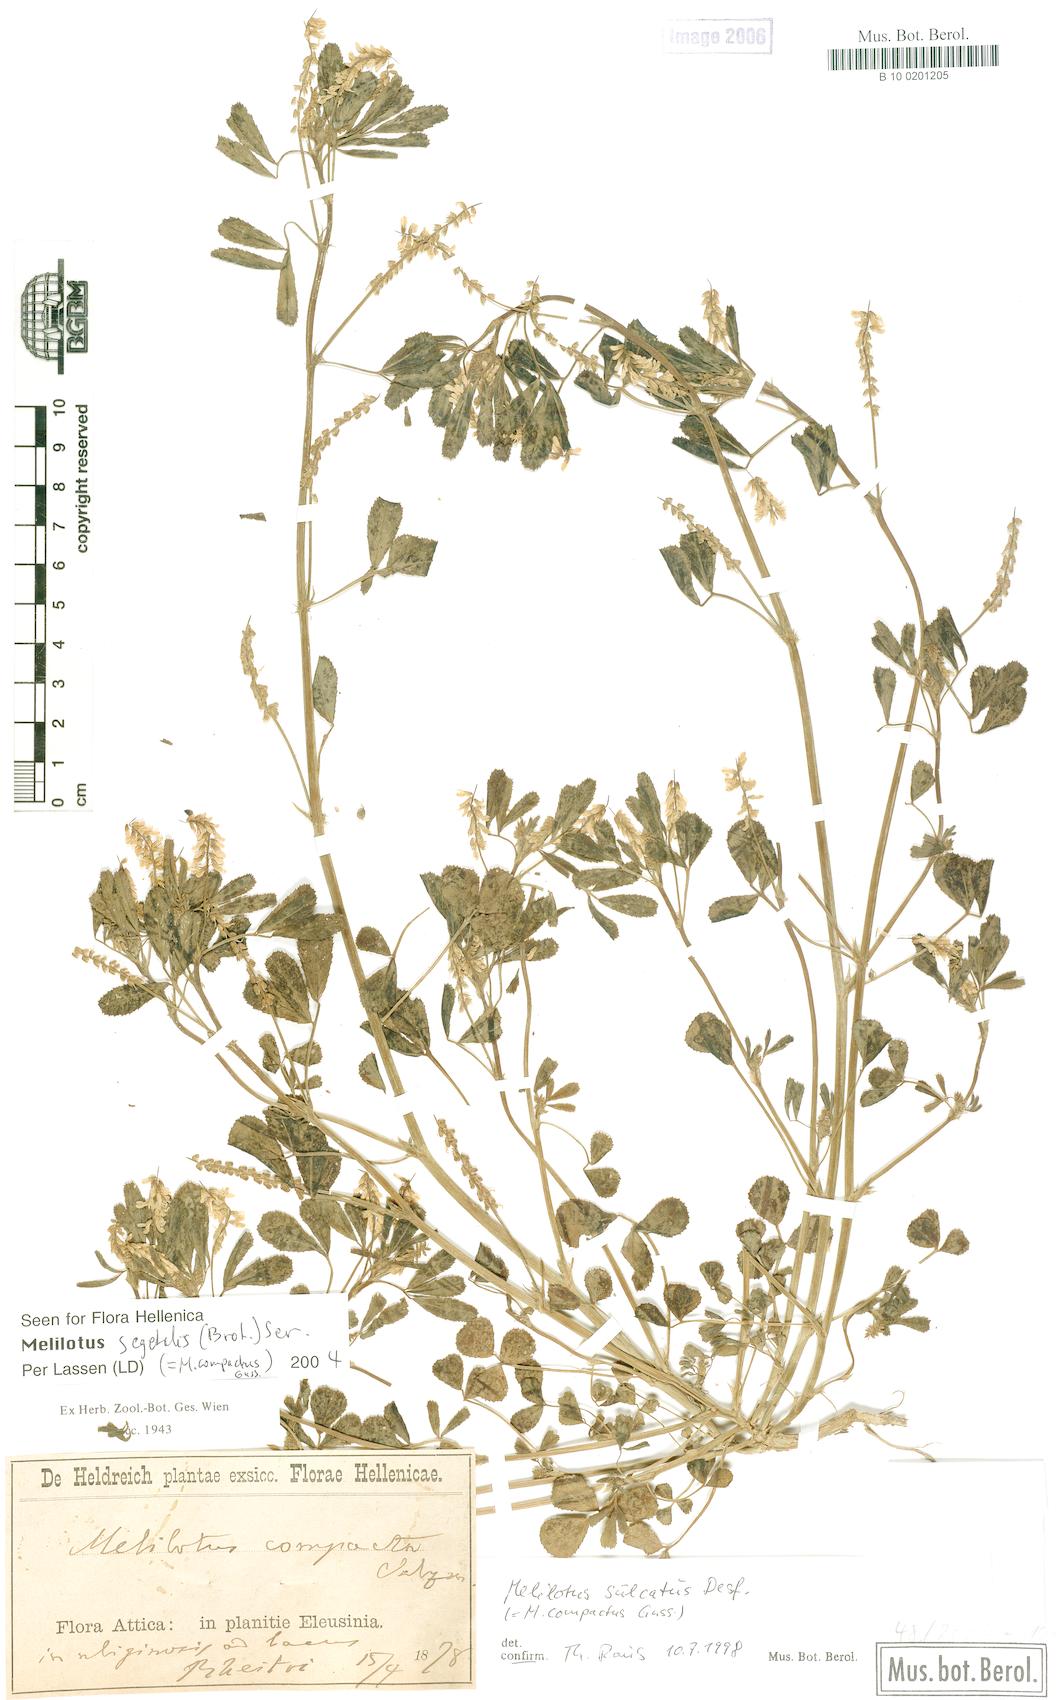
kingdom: Plantae
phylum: Tracheophyta
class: Magnoliopsida
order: Fabales
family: Fabaceae
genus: Melilotus
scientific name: Melilotus segetalis
